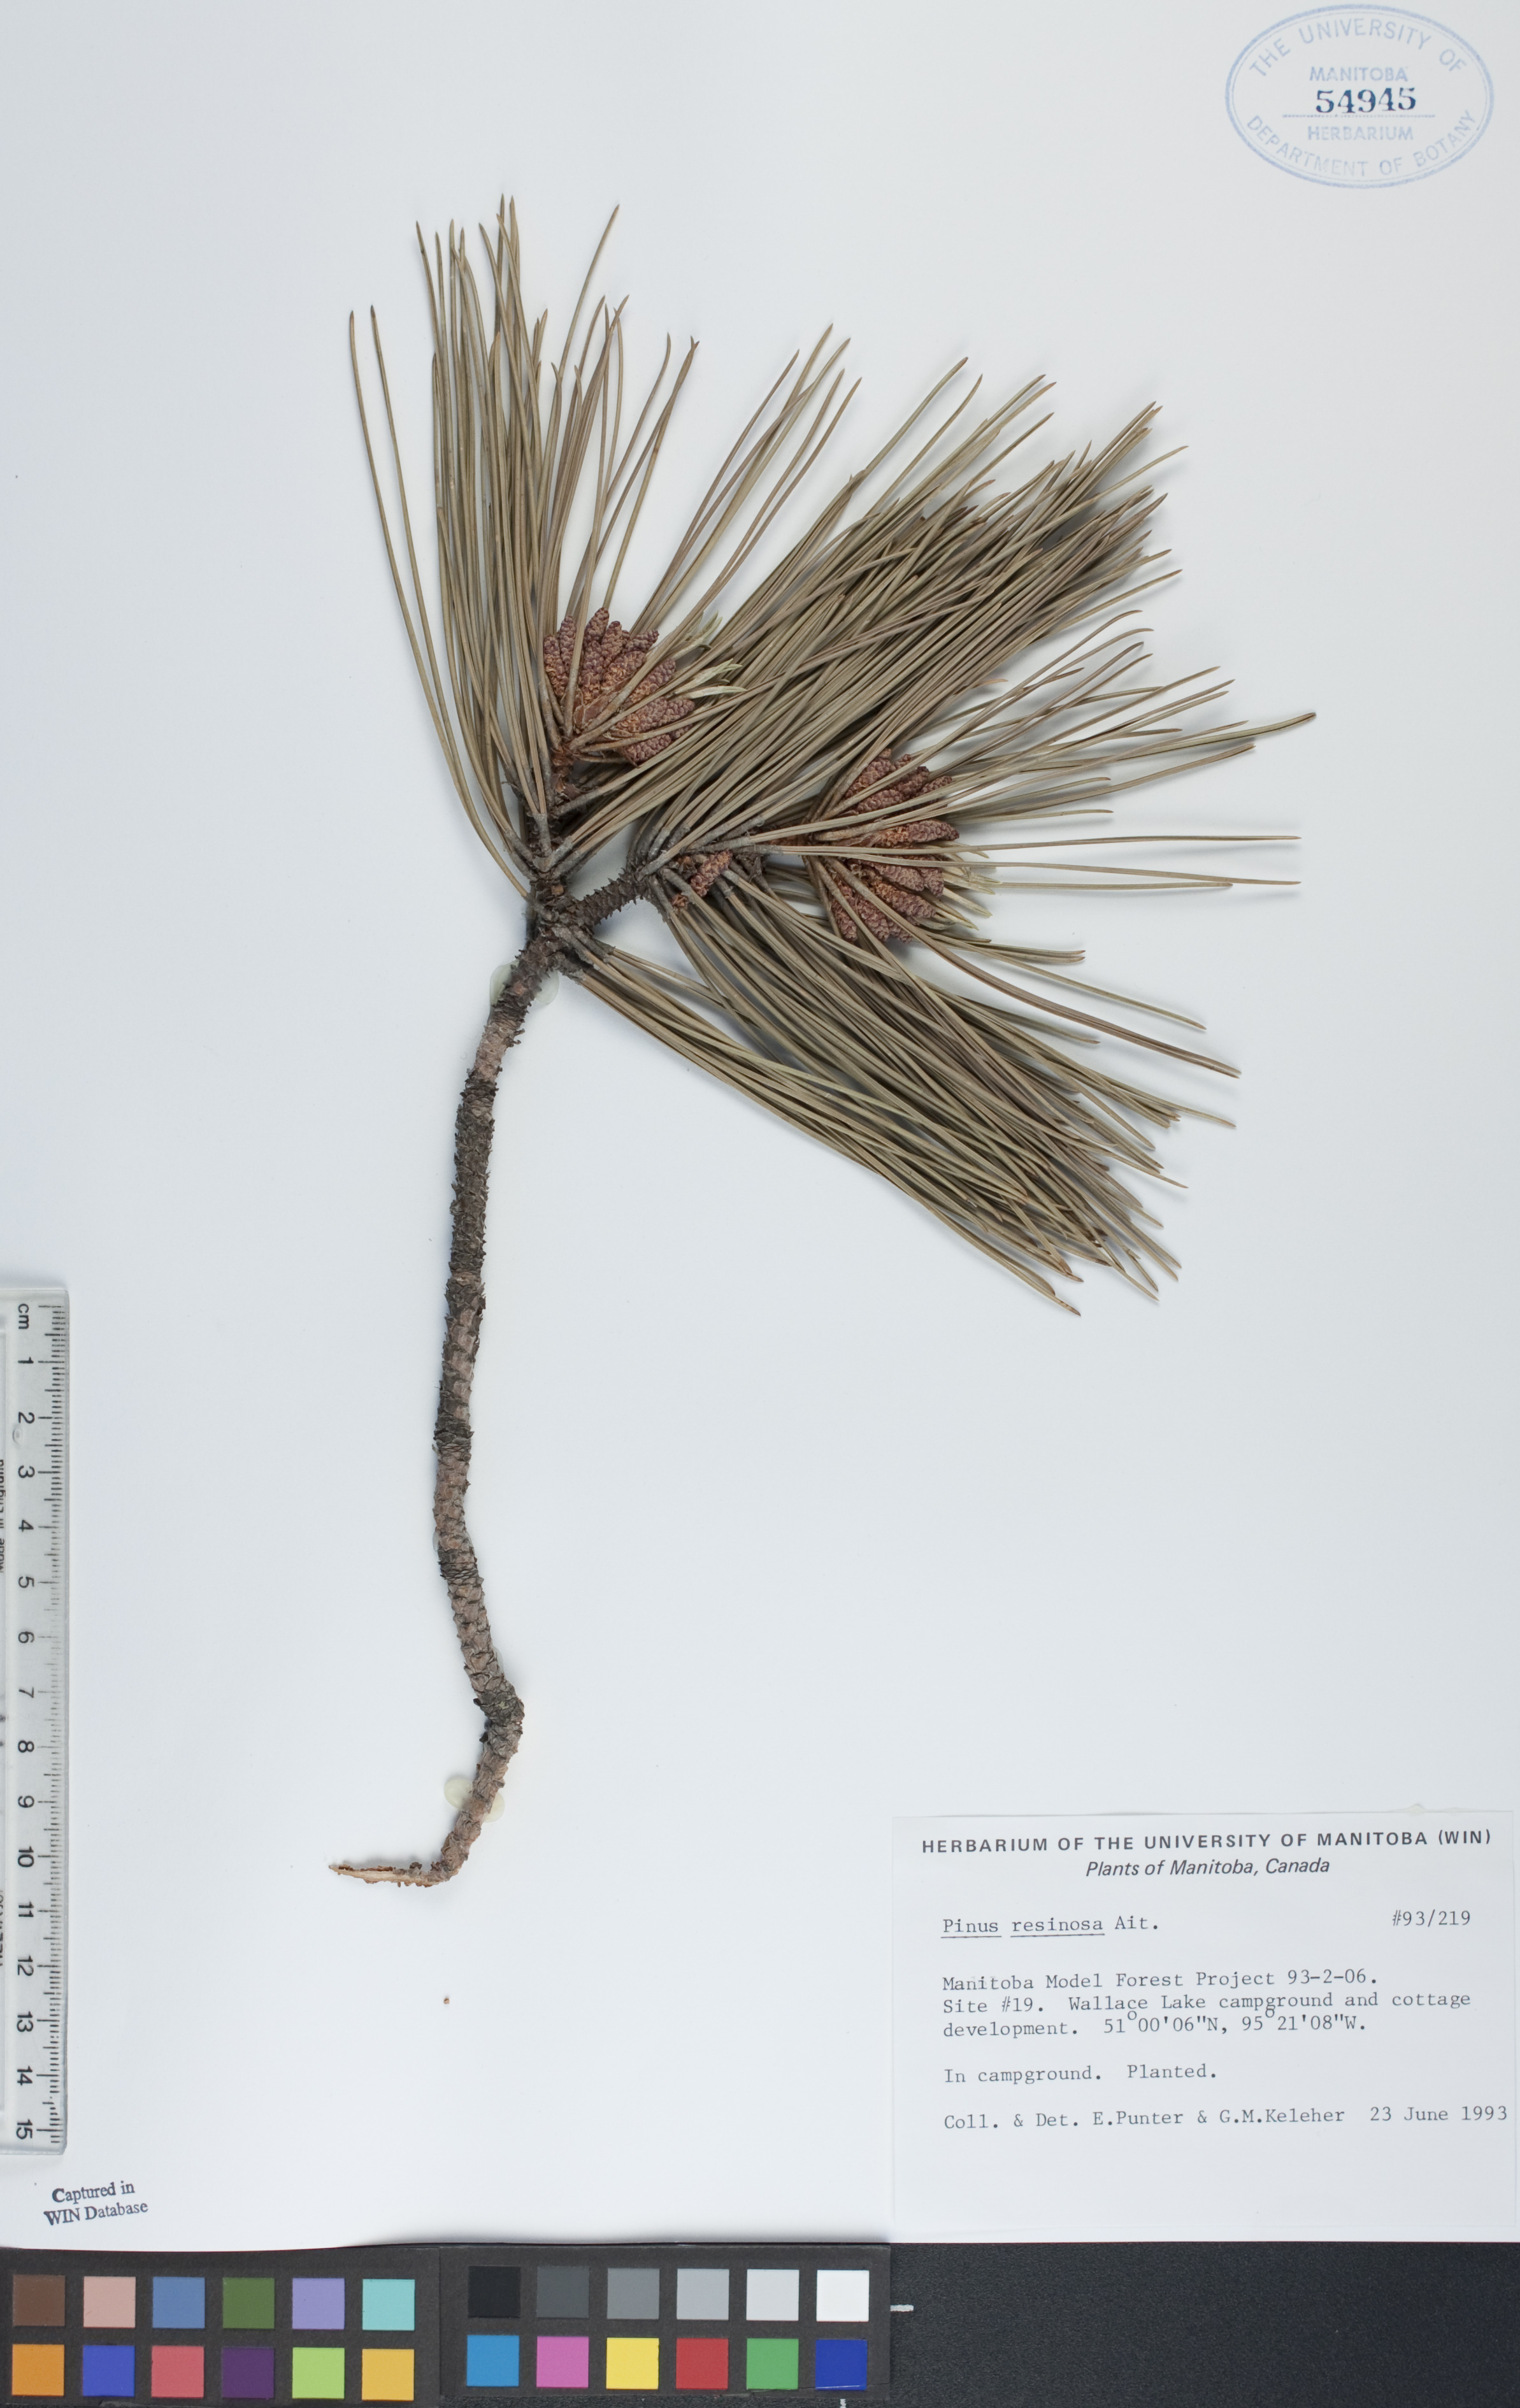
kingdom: Plantae
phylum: Tracheophyta
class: Pinopsida
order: Pinales
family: Pinaceae
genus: Pinus
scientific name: Pinus resinosa
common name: Norway pine
